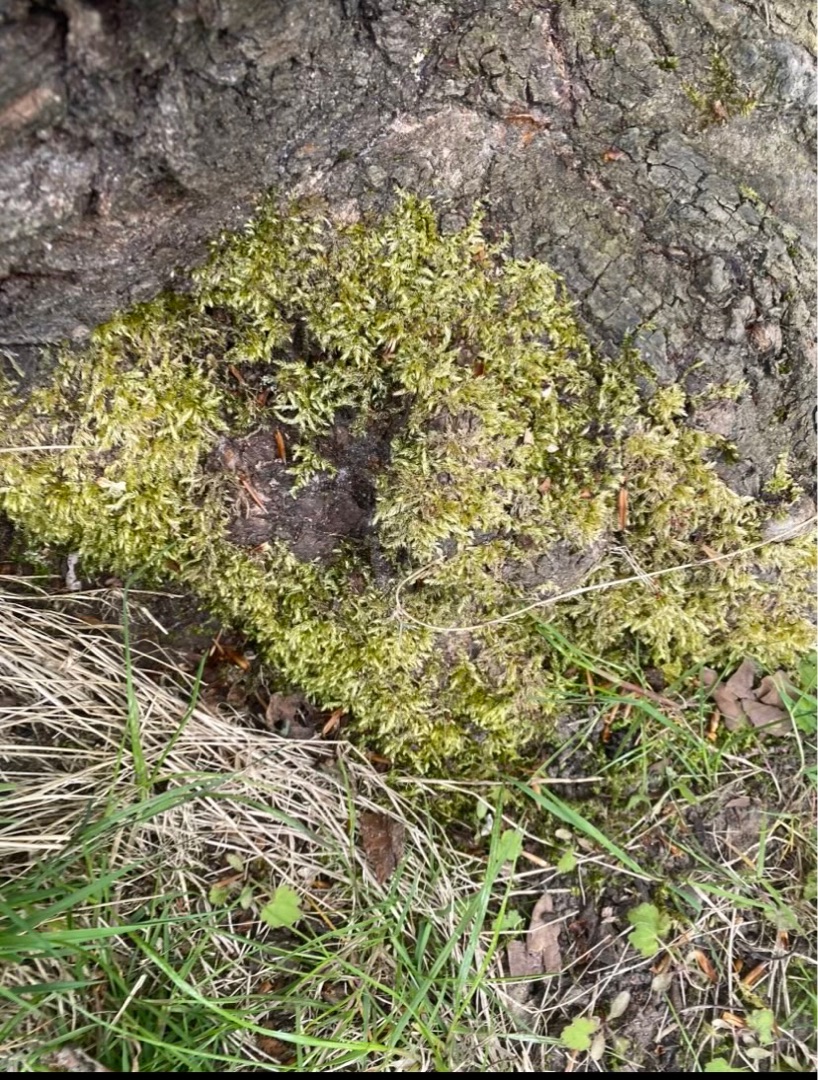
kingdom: Plantae
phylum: Bryophyta
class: Bryopsida
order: Hypnales
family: Brachytheciaceae
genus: Brachythecium
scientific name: Brachythecium rutabulum
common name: Almindelig kortkapsel
